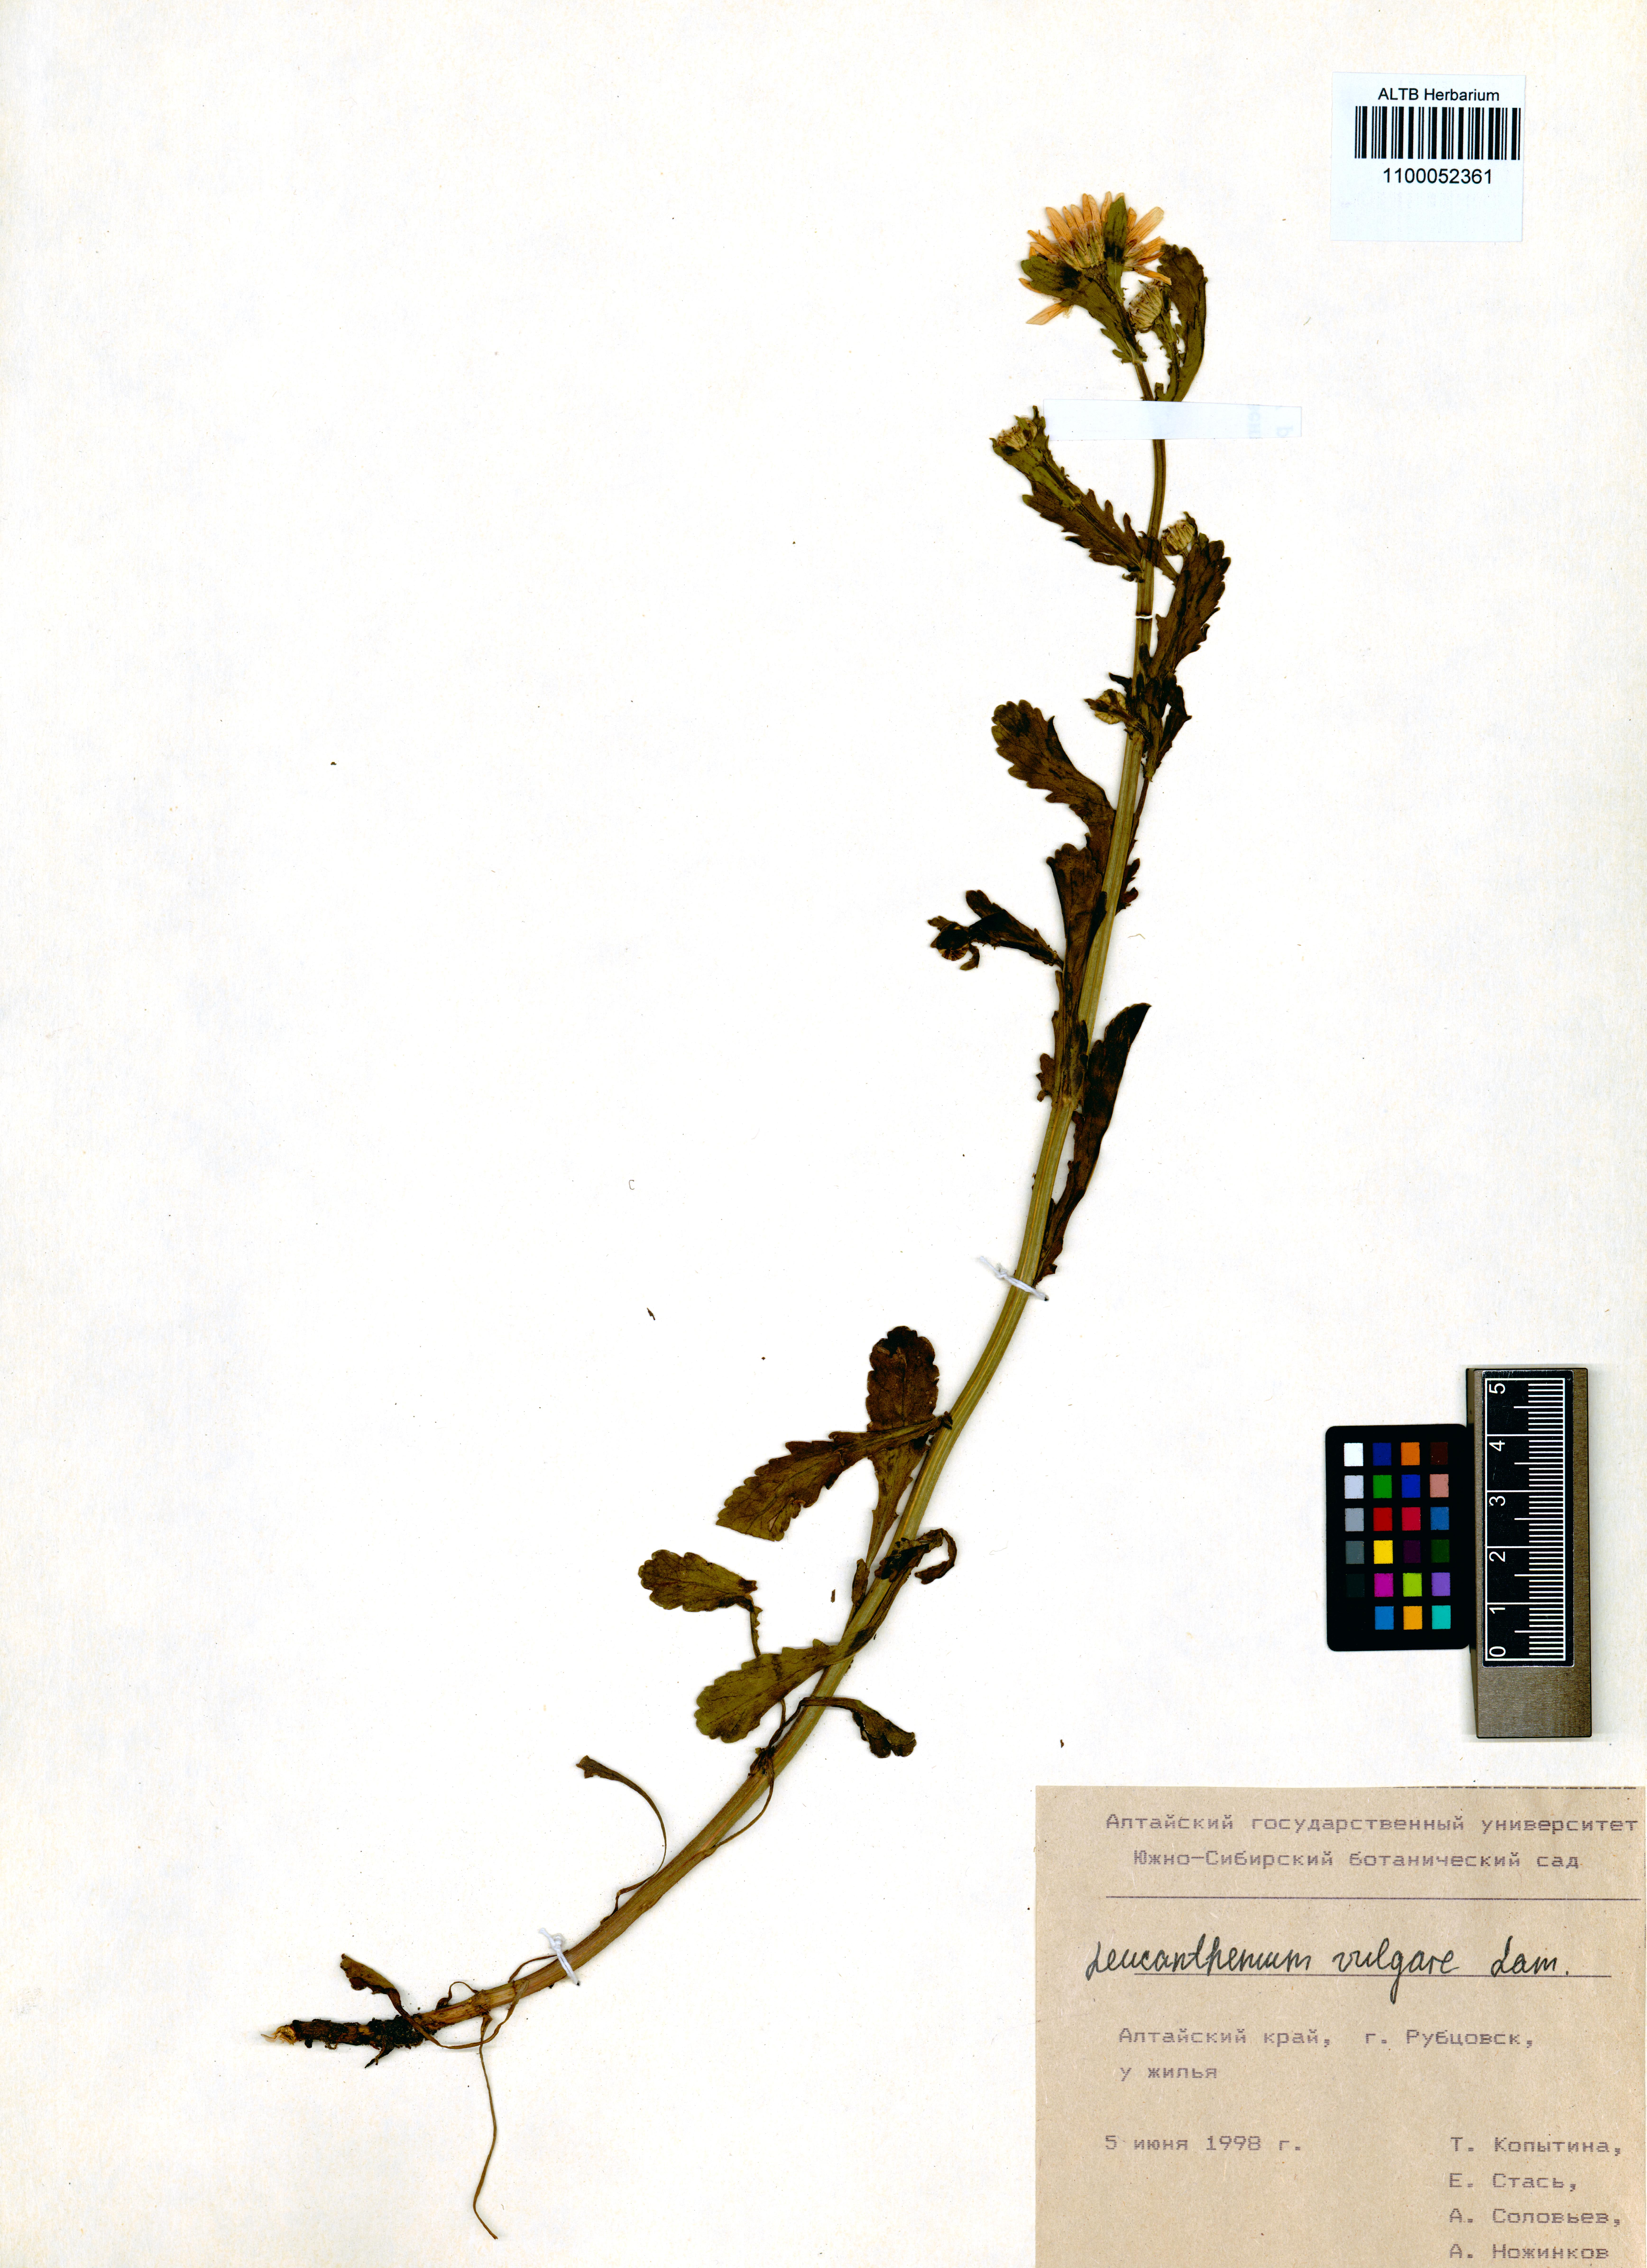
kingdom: Plantae
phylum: Tracheophyta
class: Magnoliopsida
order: Asterales
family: Asteraceae
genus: Leucanthemum
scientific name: Leucanthemum vulgare
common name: Oxeye daisy
